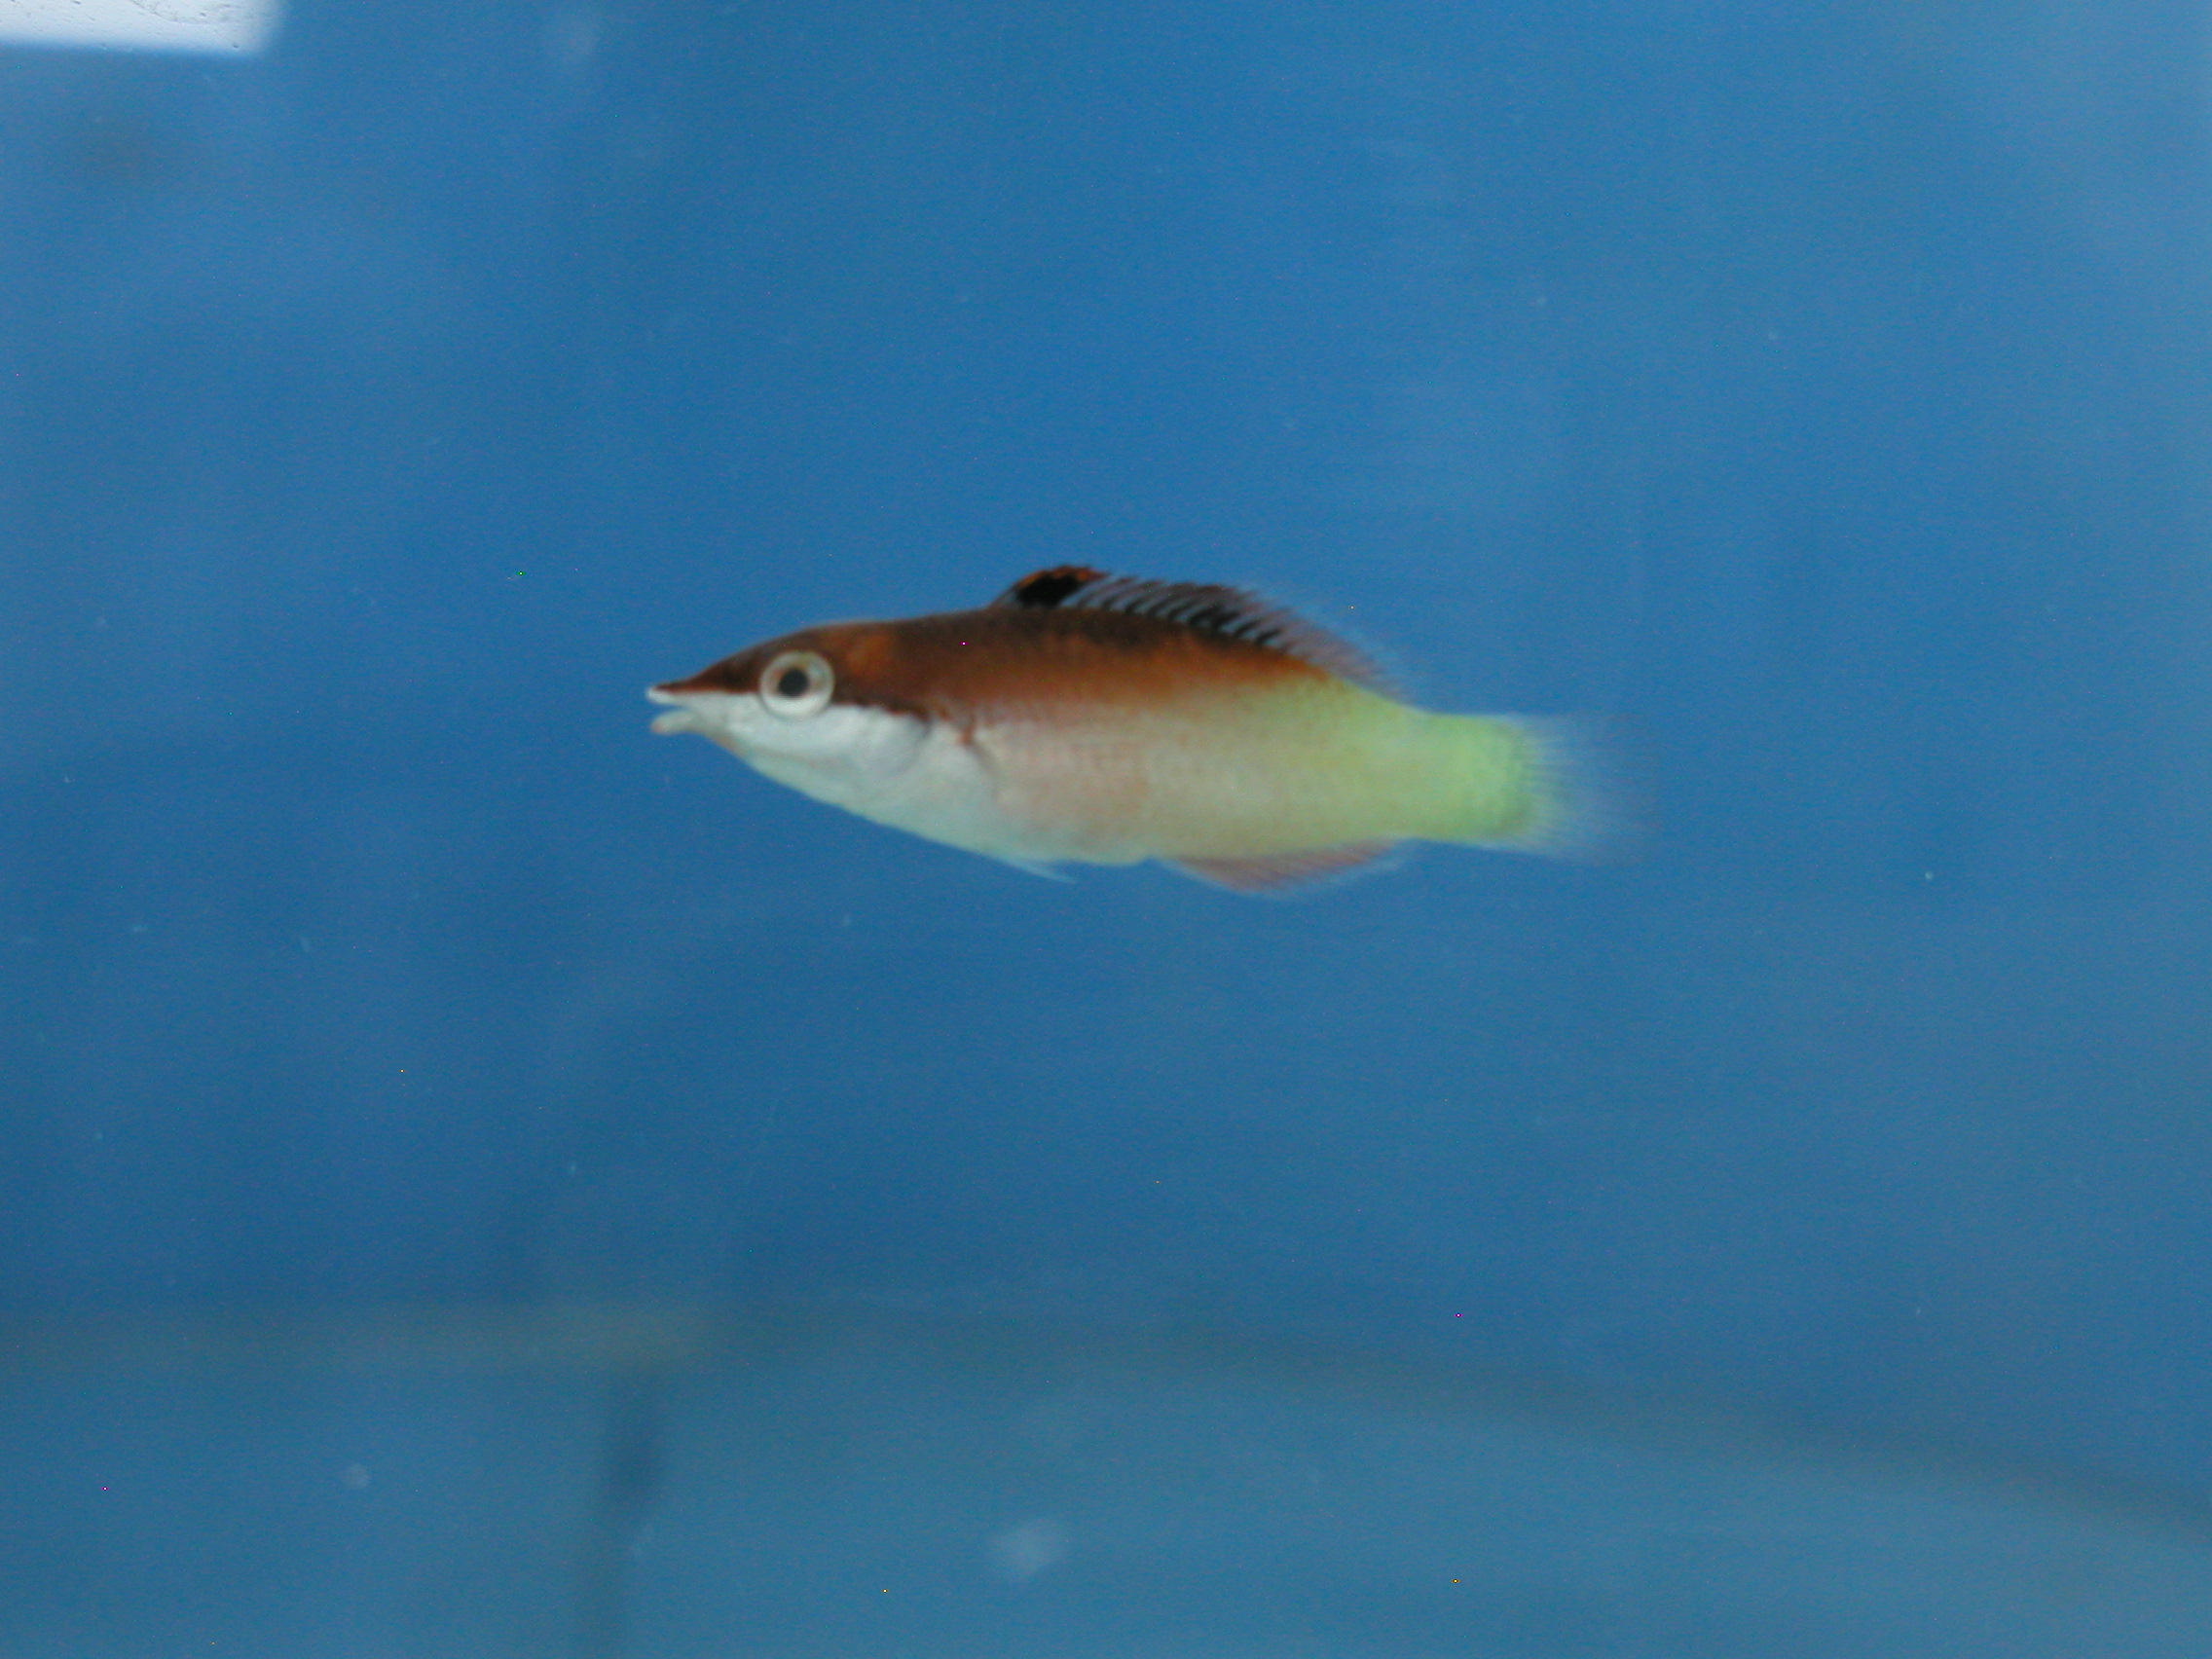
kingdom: Animalia
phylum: Chordata
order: Perciformes
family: Labridae
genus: Gomphosus
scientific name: Gomphosus caeruleus
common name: Bird wrasse
